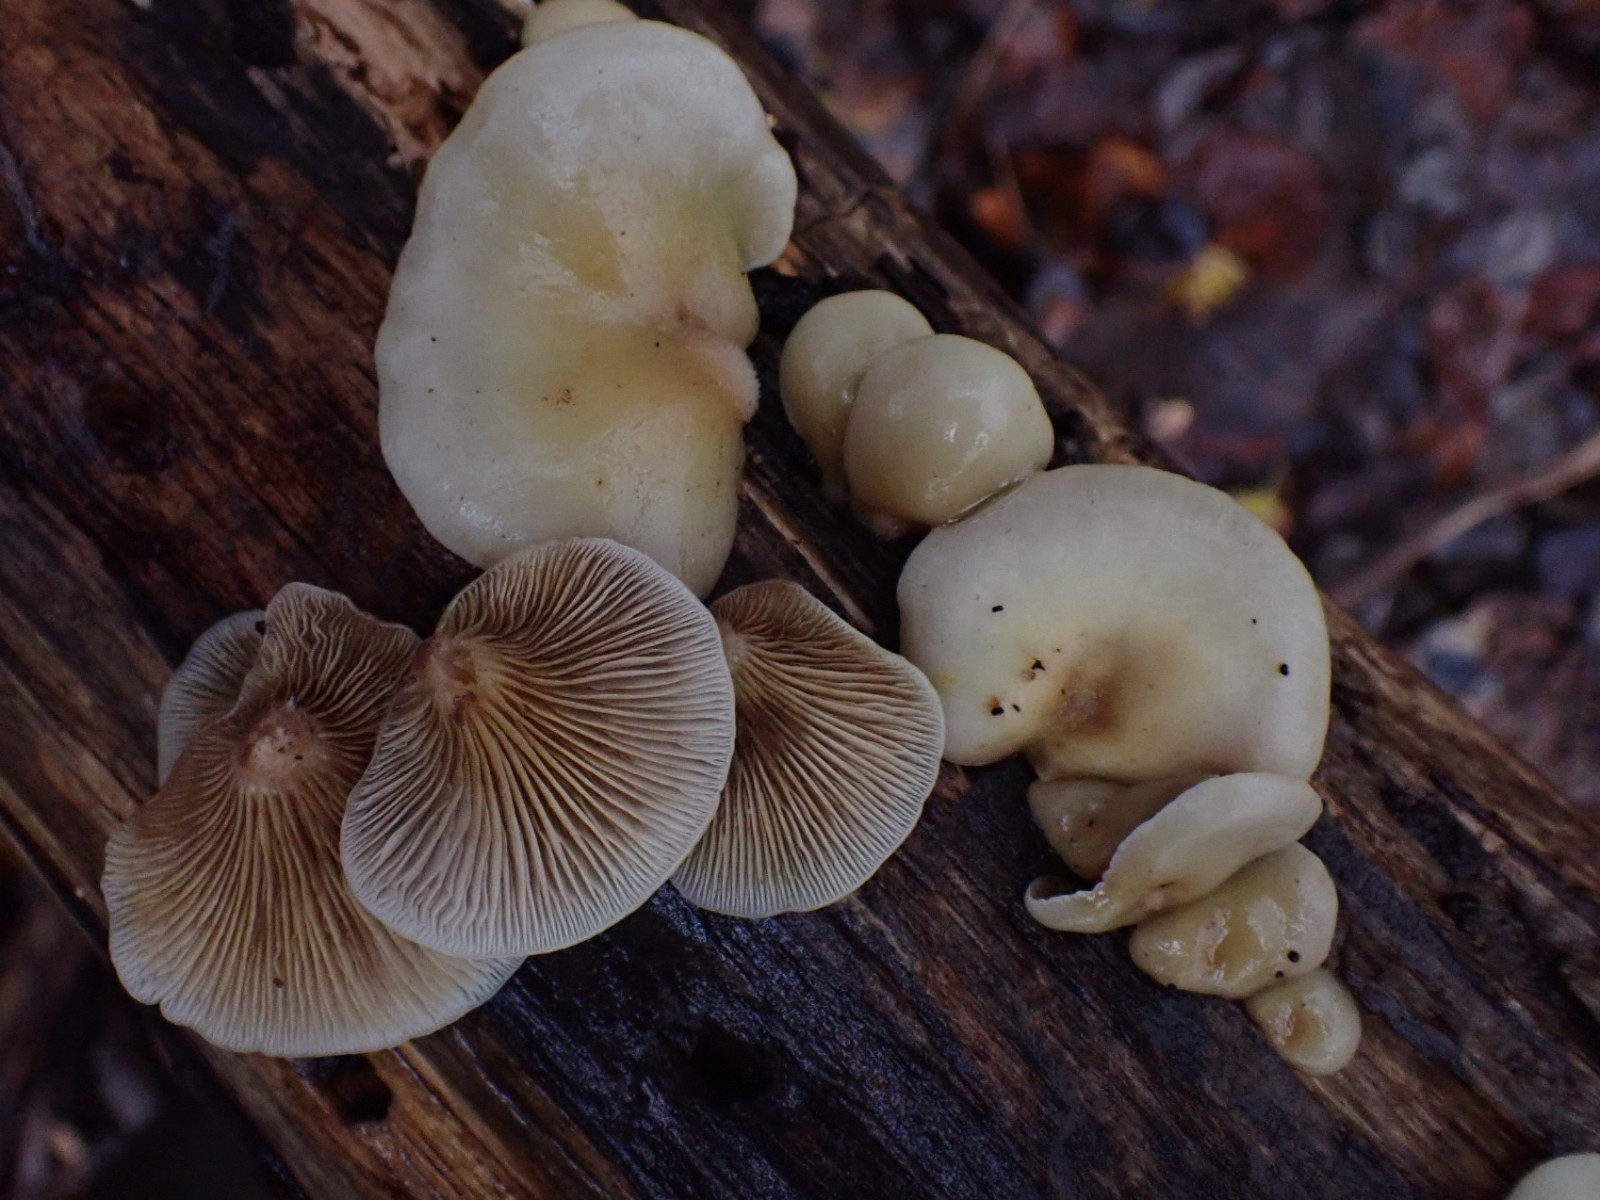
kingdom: Fungi
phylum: Basidiomycota
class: Agaricomycetes
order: Agaricales
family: Crepidotaceae
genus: Crepidotus
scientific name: Crepidotus mollis
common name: blød muslingesvamp
